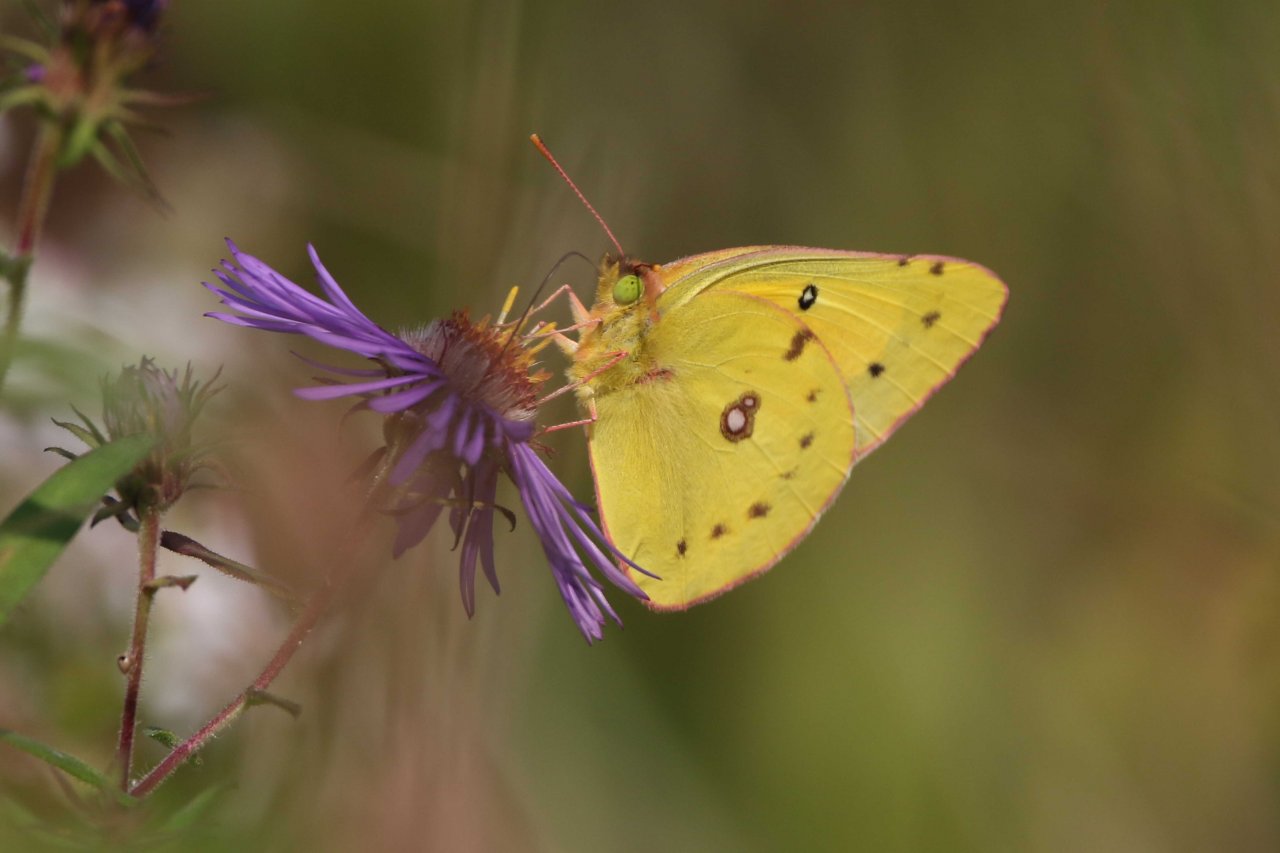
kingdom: Animalia
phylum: Arthropoda
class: Insecta
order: Lepidoptera
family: Pieridae
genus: Colias
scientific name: Colias eurytheme
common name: Orange Sulphur
